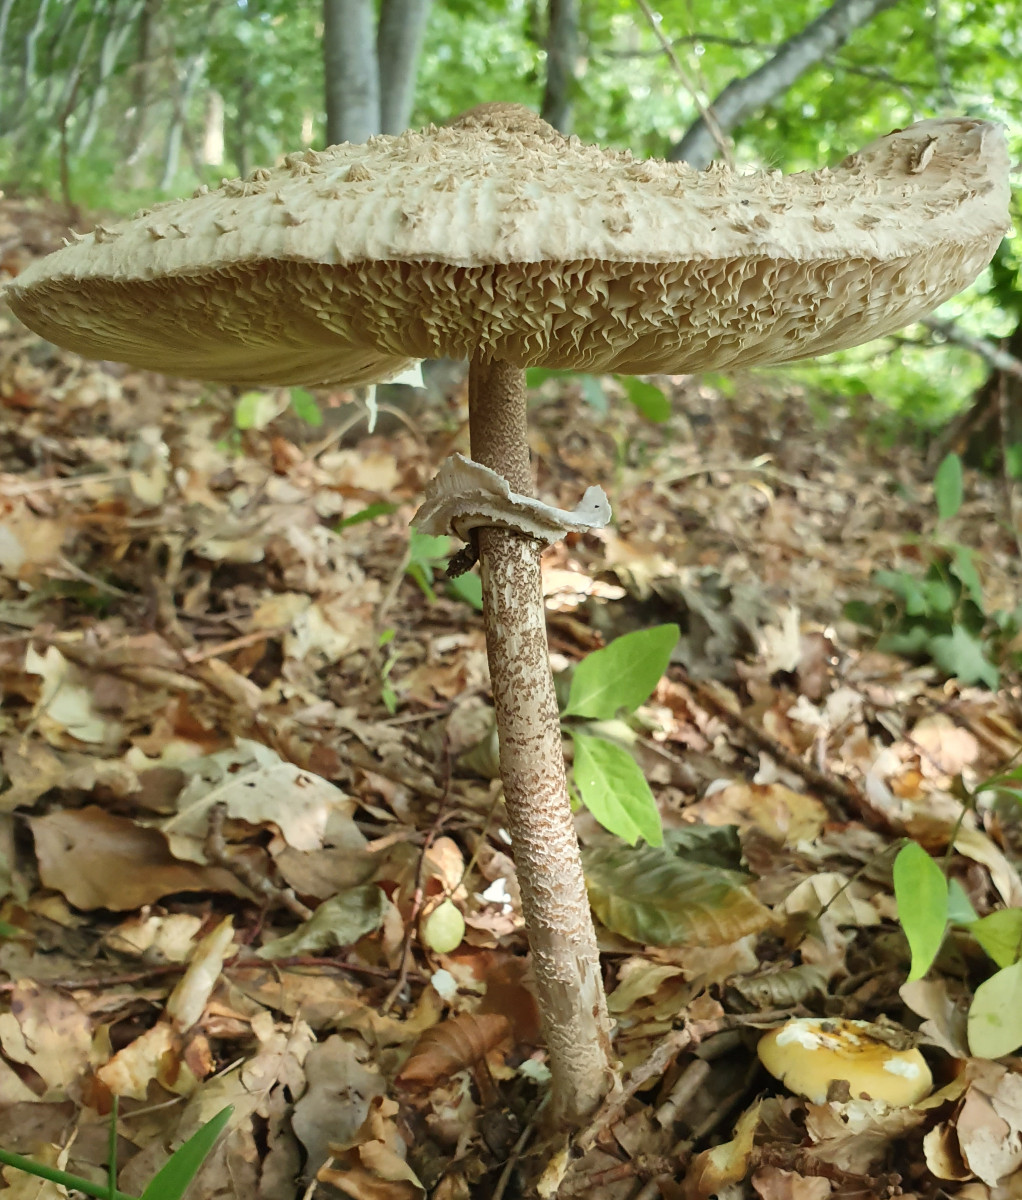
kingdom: Fungi
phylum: Basidiomycota
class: Agaricomycetes
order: Agaricales
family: Agaricaceae
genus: Macrolepiota
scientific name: Macrolepiota procera
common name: stor kæmpeparasolhat
